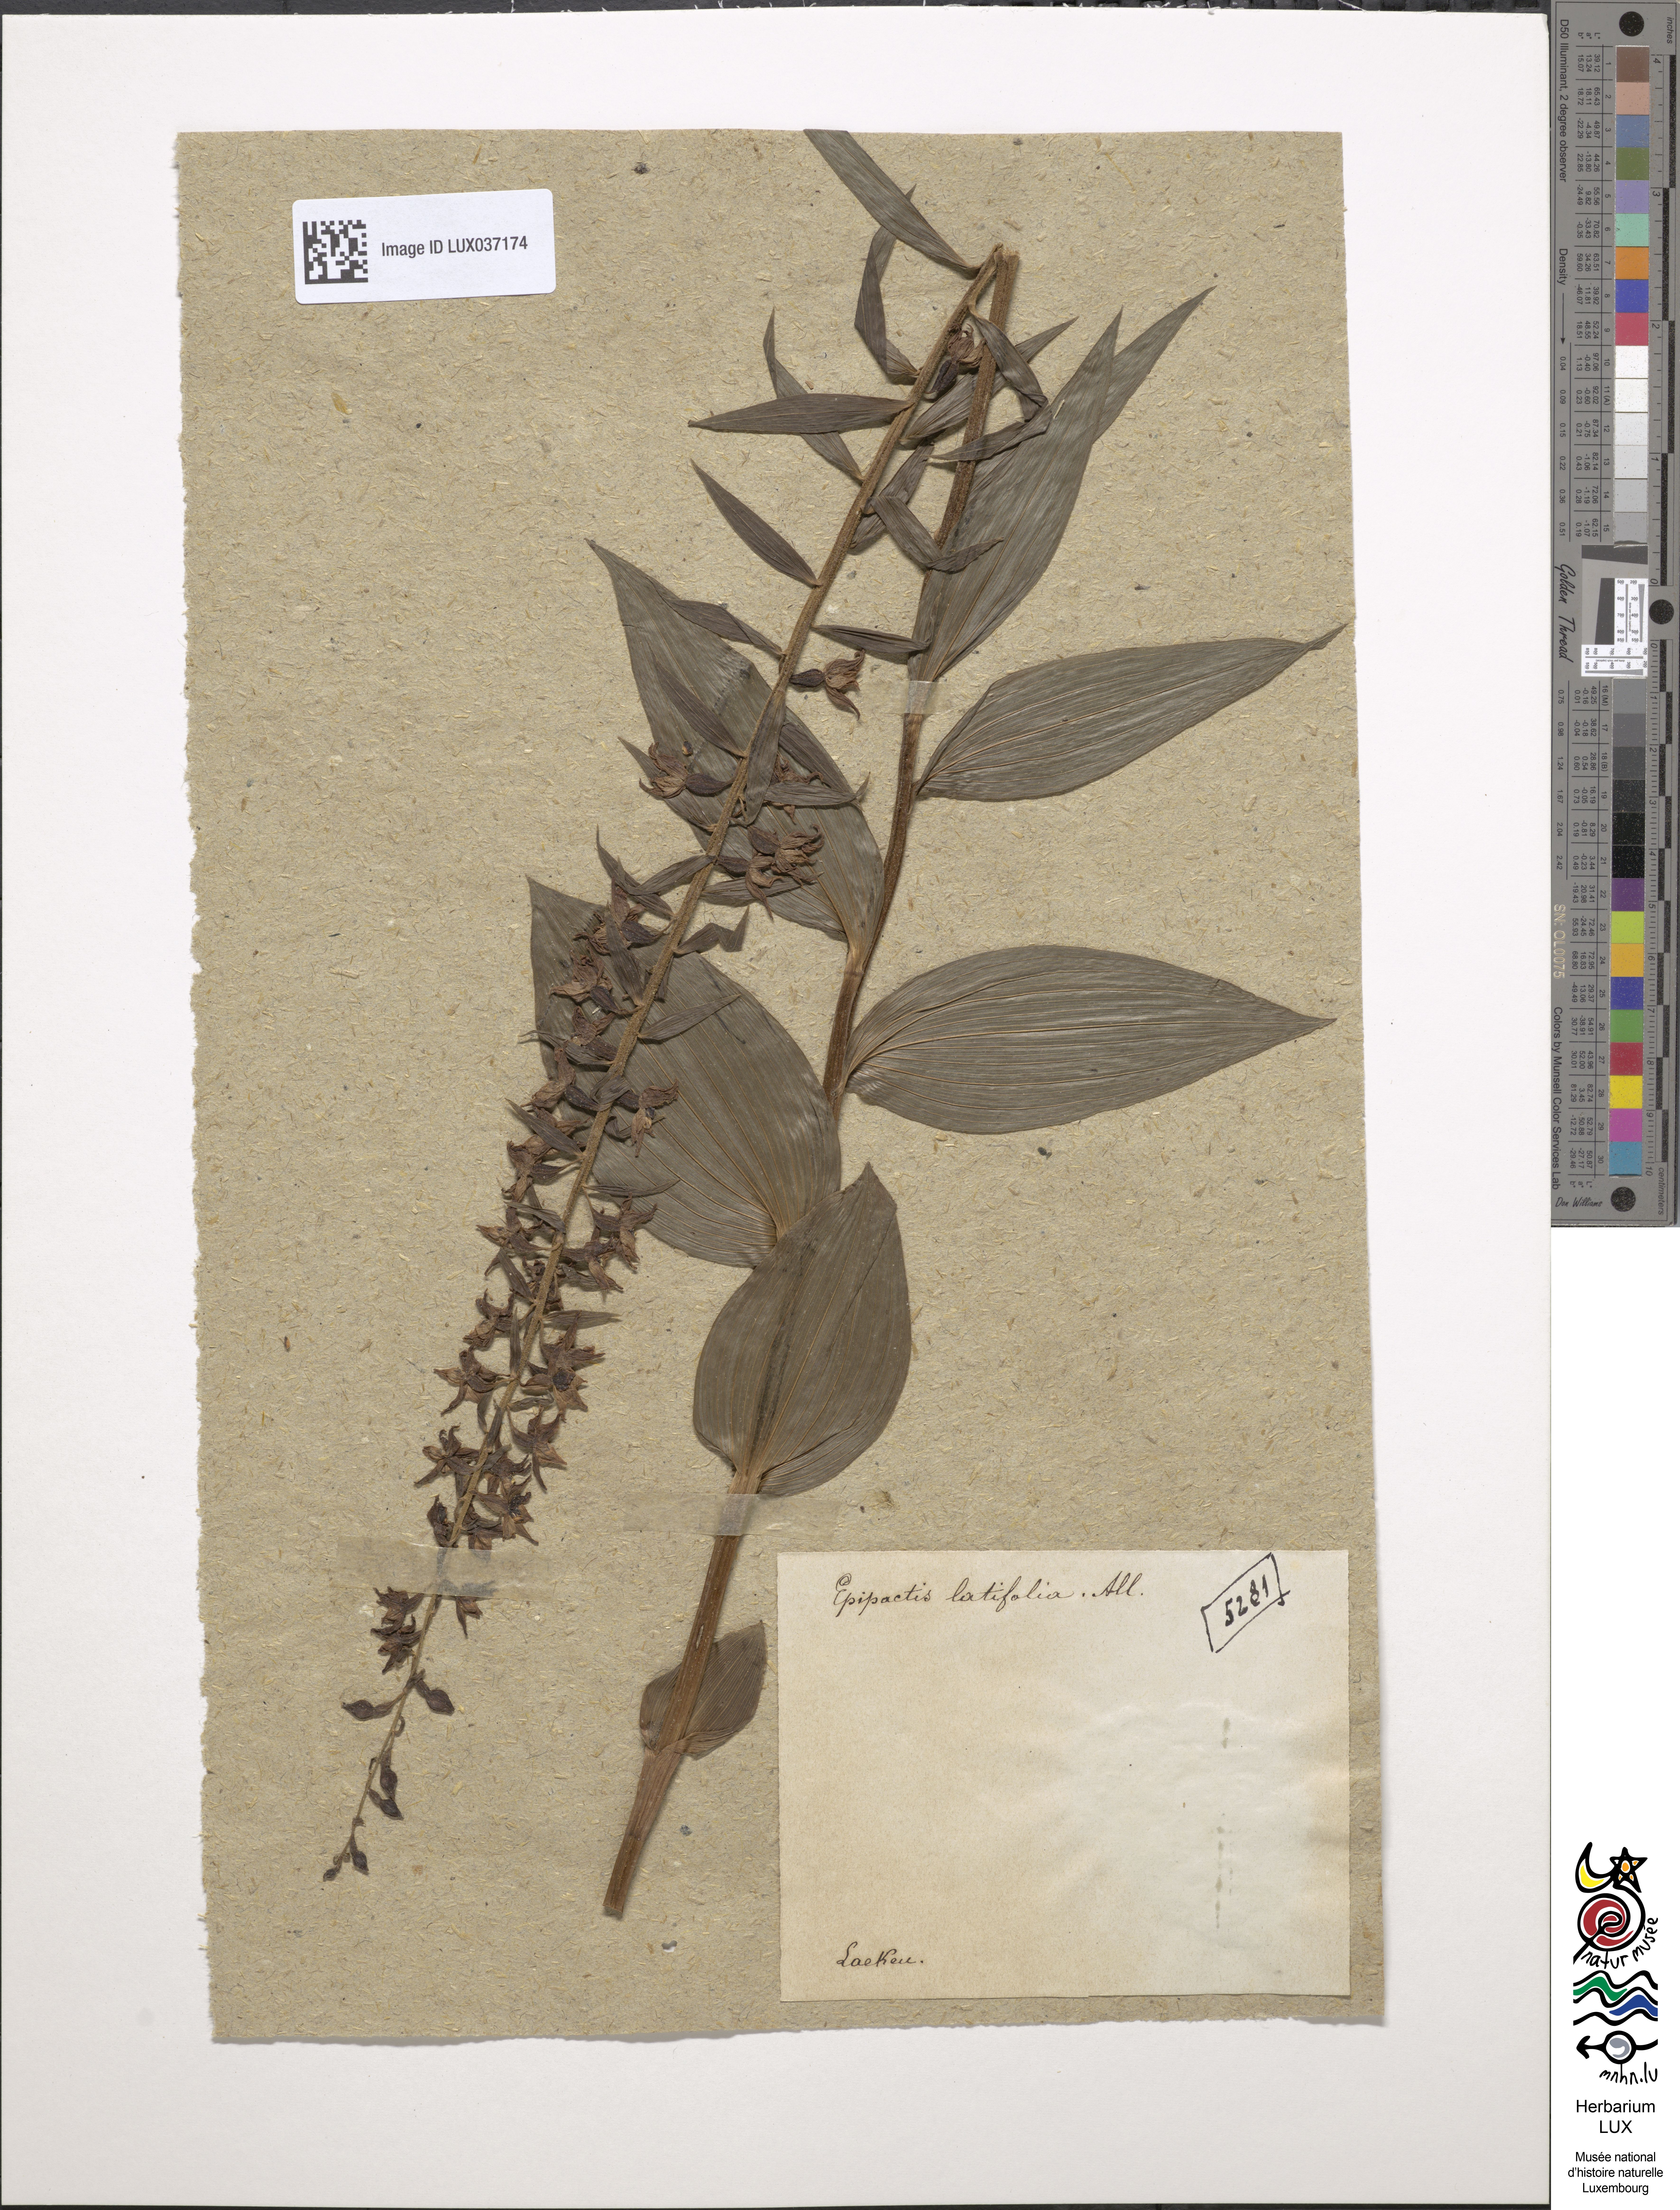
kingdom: Plantae
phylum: Tracheophyta
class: Liliopsida
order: Asparagales
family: Orchidaceae
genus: Epipactis
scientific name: Epipactis helleborine
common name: Broad-leaved helleborine
